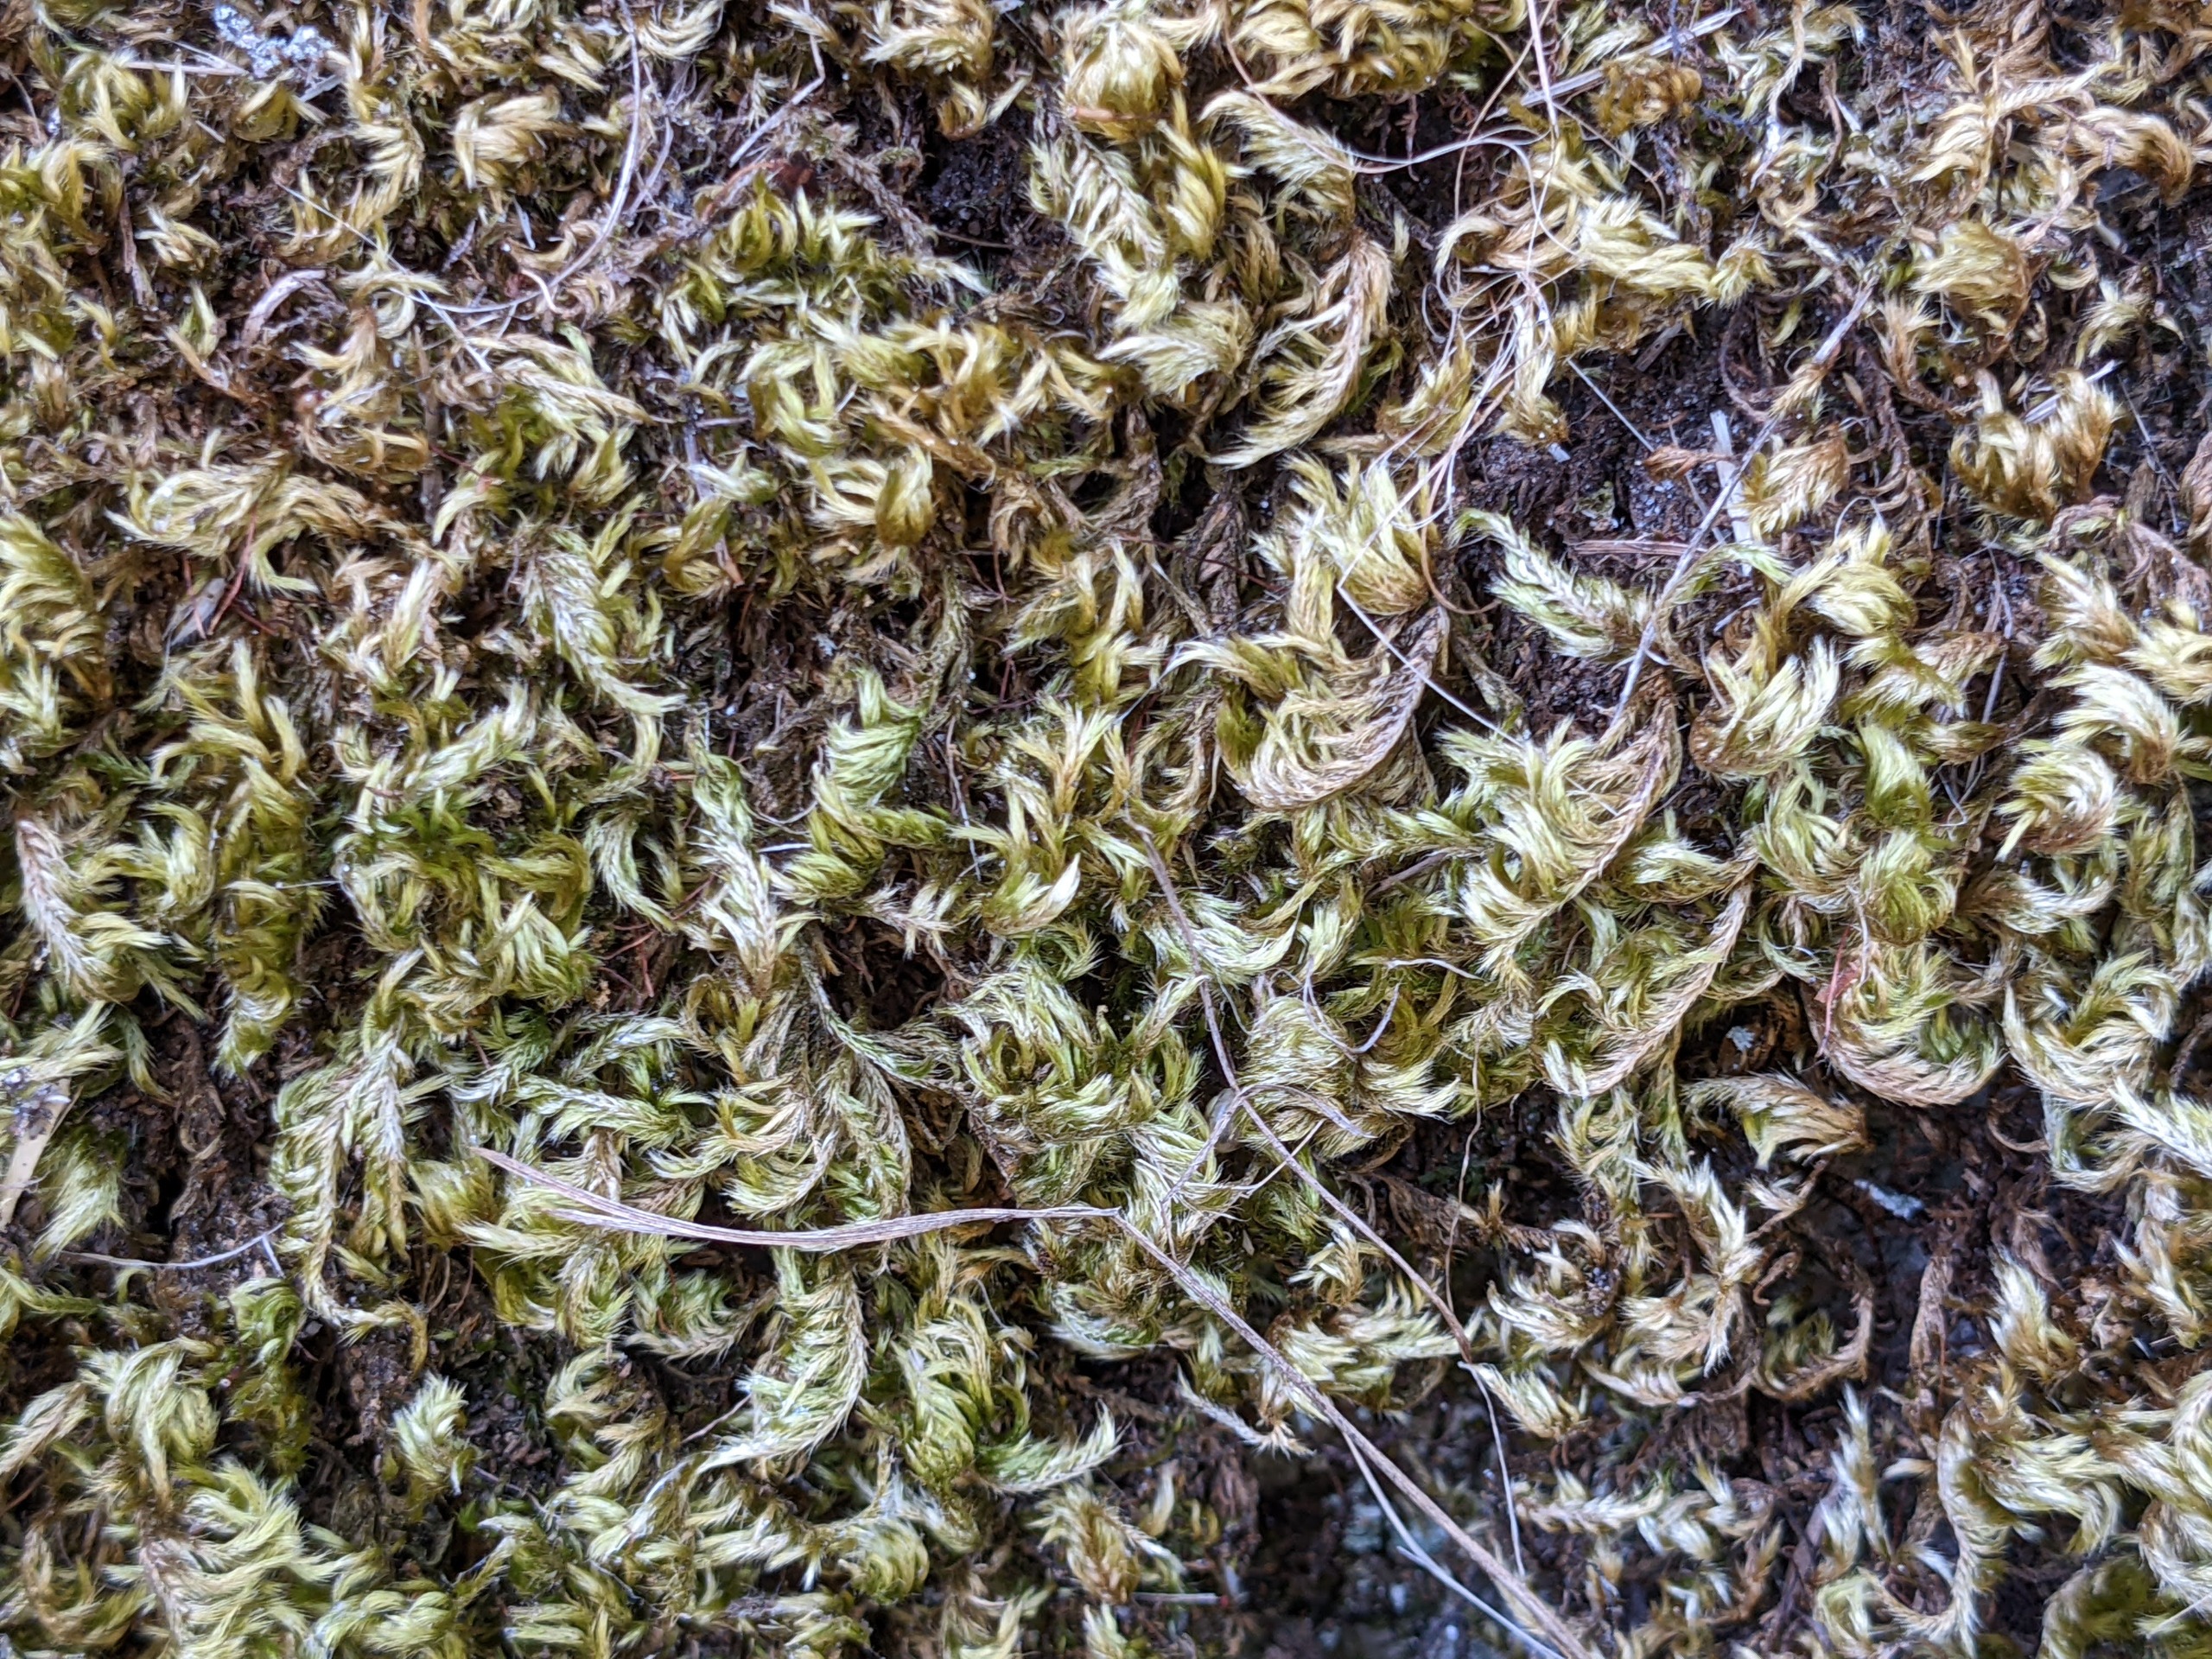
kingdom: Plantae
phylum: Bryophyta
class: Bryopsida
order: Hypnales
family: Brachytheciaceae
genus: Homalothecium
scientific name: Homalothecium sericeum
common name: Krybende silkemos
